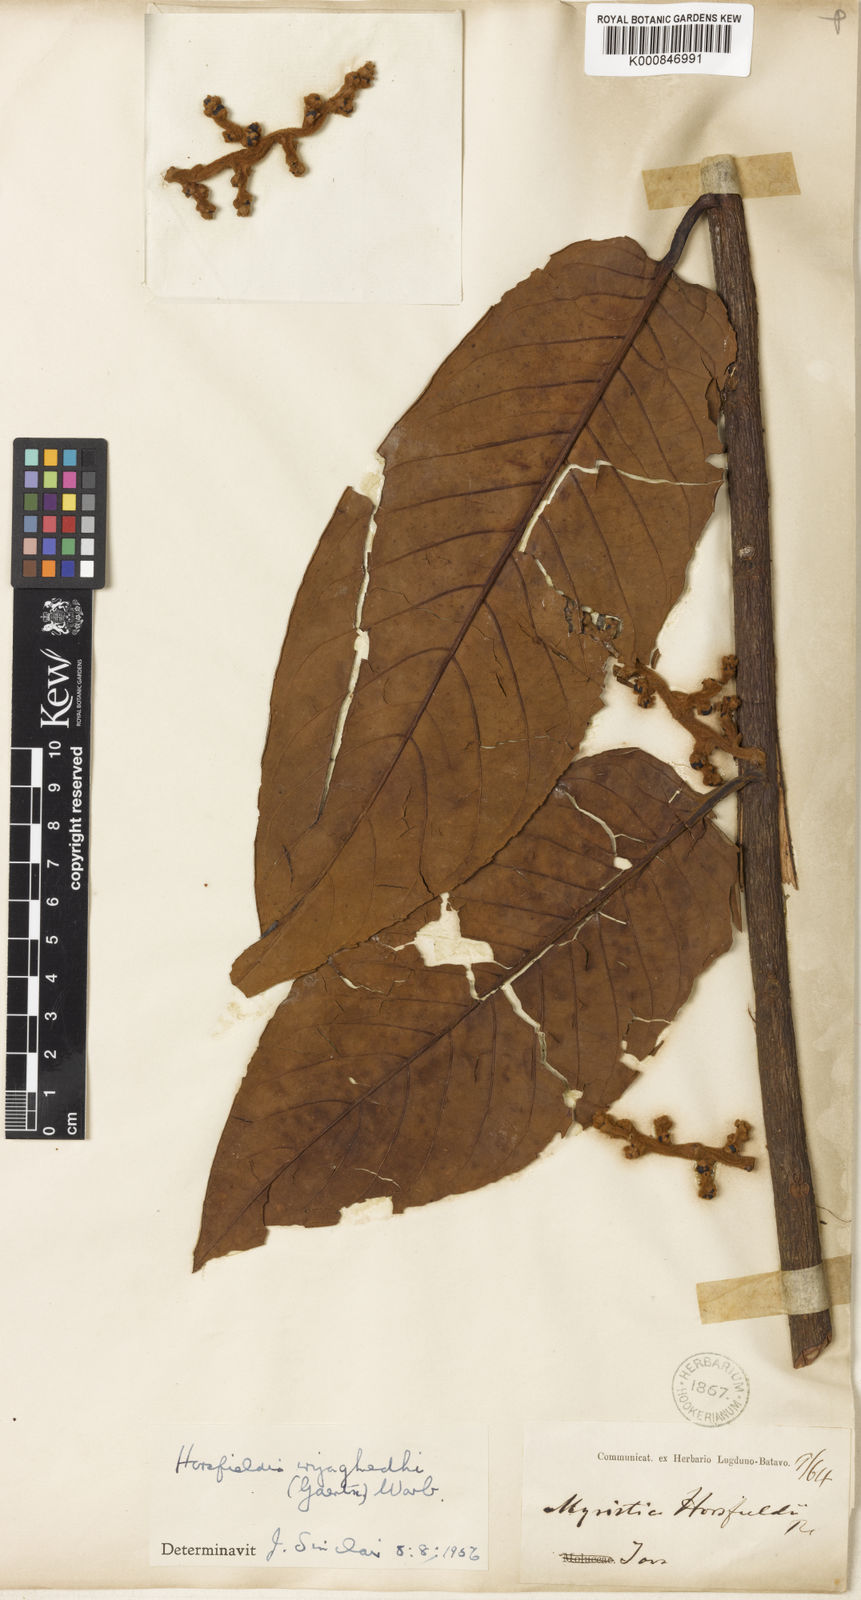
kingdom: Plantae
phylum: Tracheophyta
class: Magnoliopsida
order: Magnoliales
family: Myristicaceae
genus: Horsfieldia
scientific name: Horsfieldia iryaghedhi
